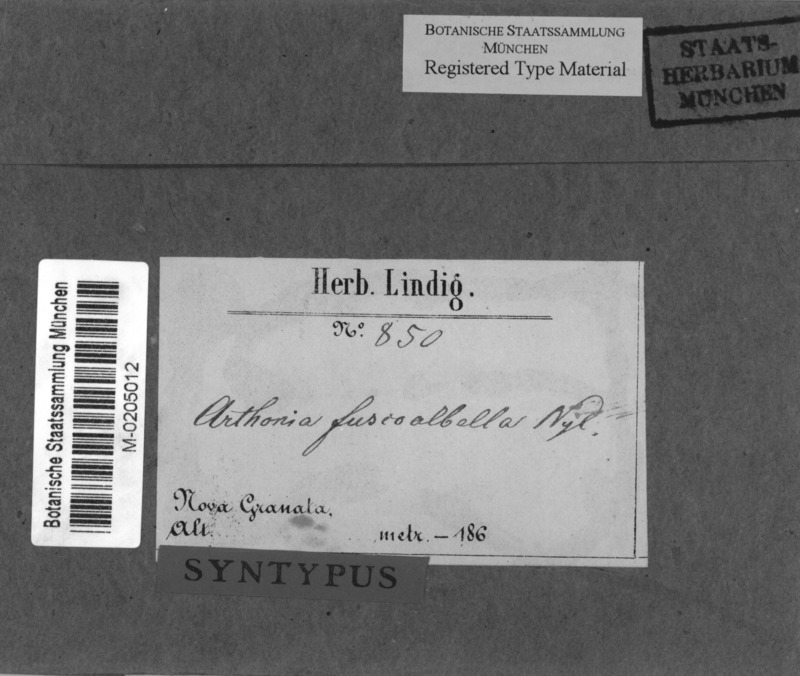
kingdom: Fungi
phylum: Ascomycota
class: Arthoniomycetes
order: Arthoniales
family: Arthoniaceae
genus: Arthonia
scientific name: Arthonia fuscoalbella
